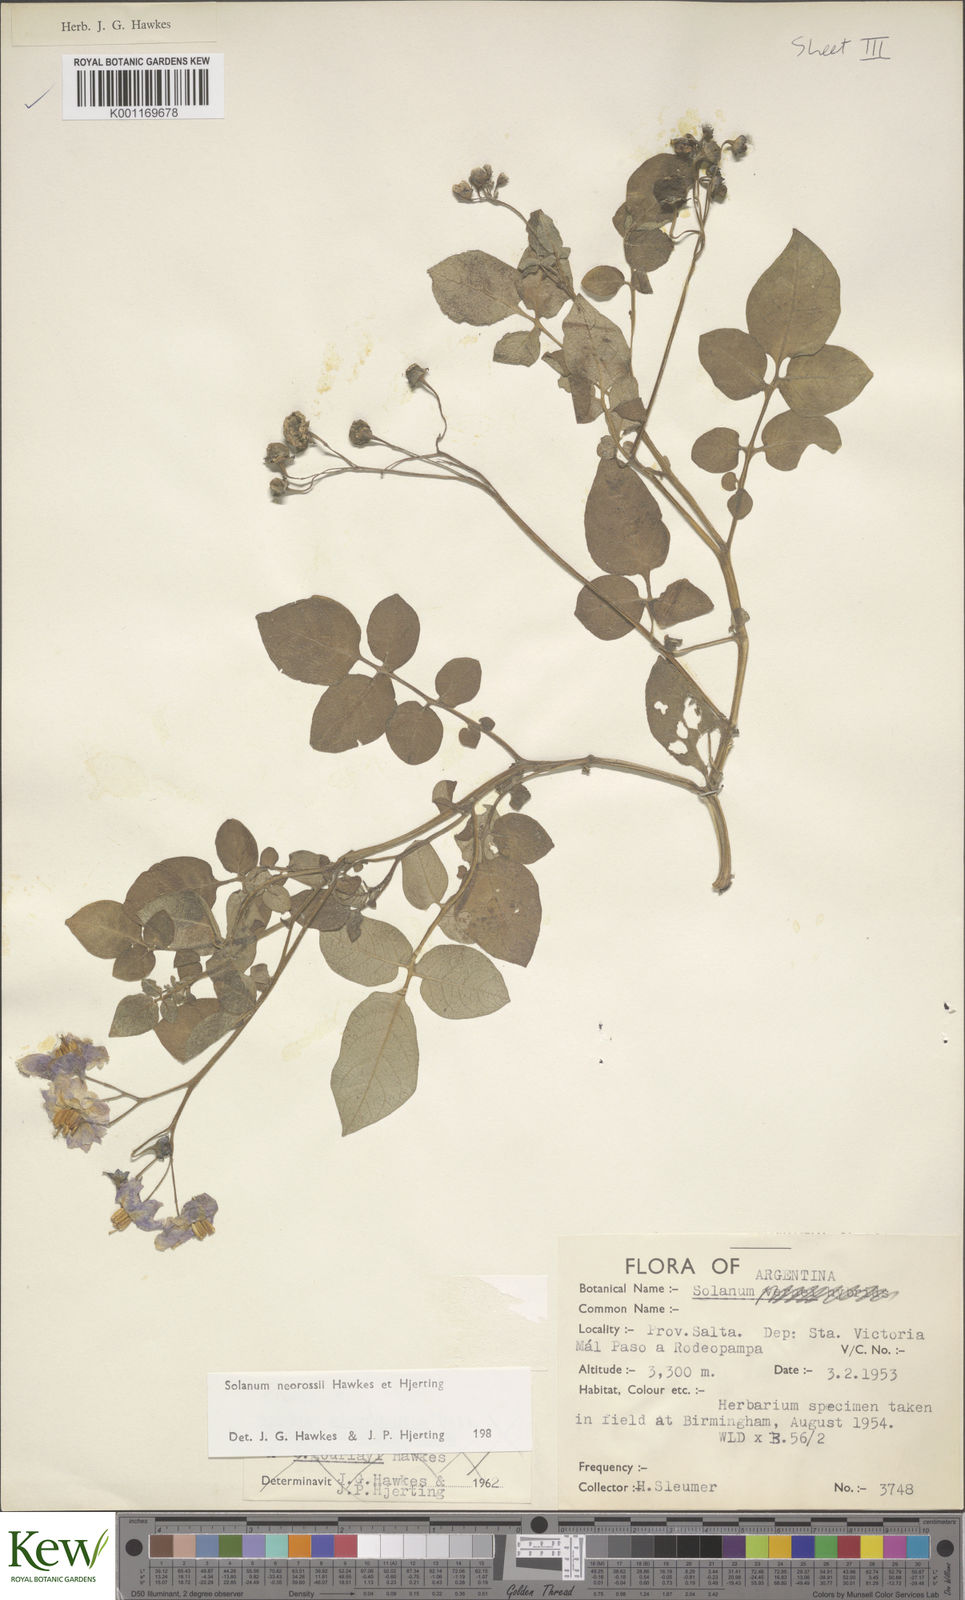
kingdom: Plantae
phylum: Tracheophyta
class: Magnoliopsida
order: Solanales
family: Solanaceae
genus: Solanum
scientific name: Solanum neorossii
